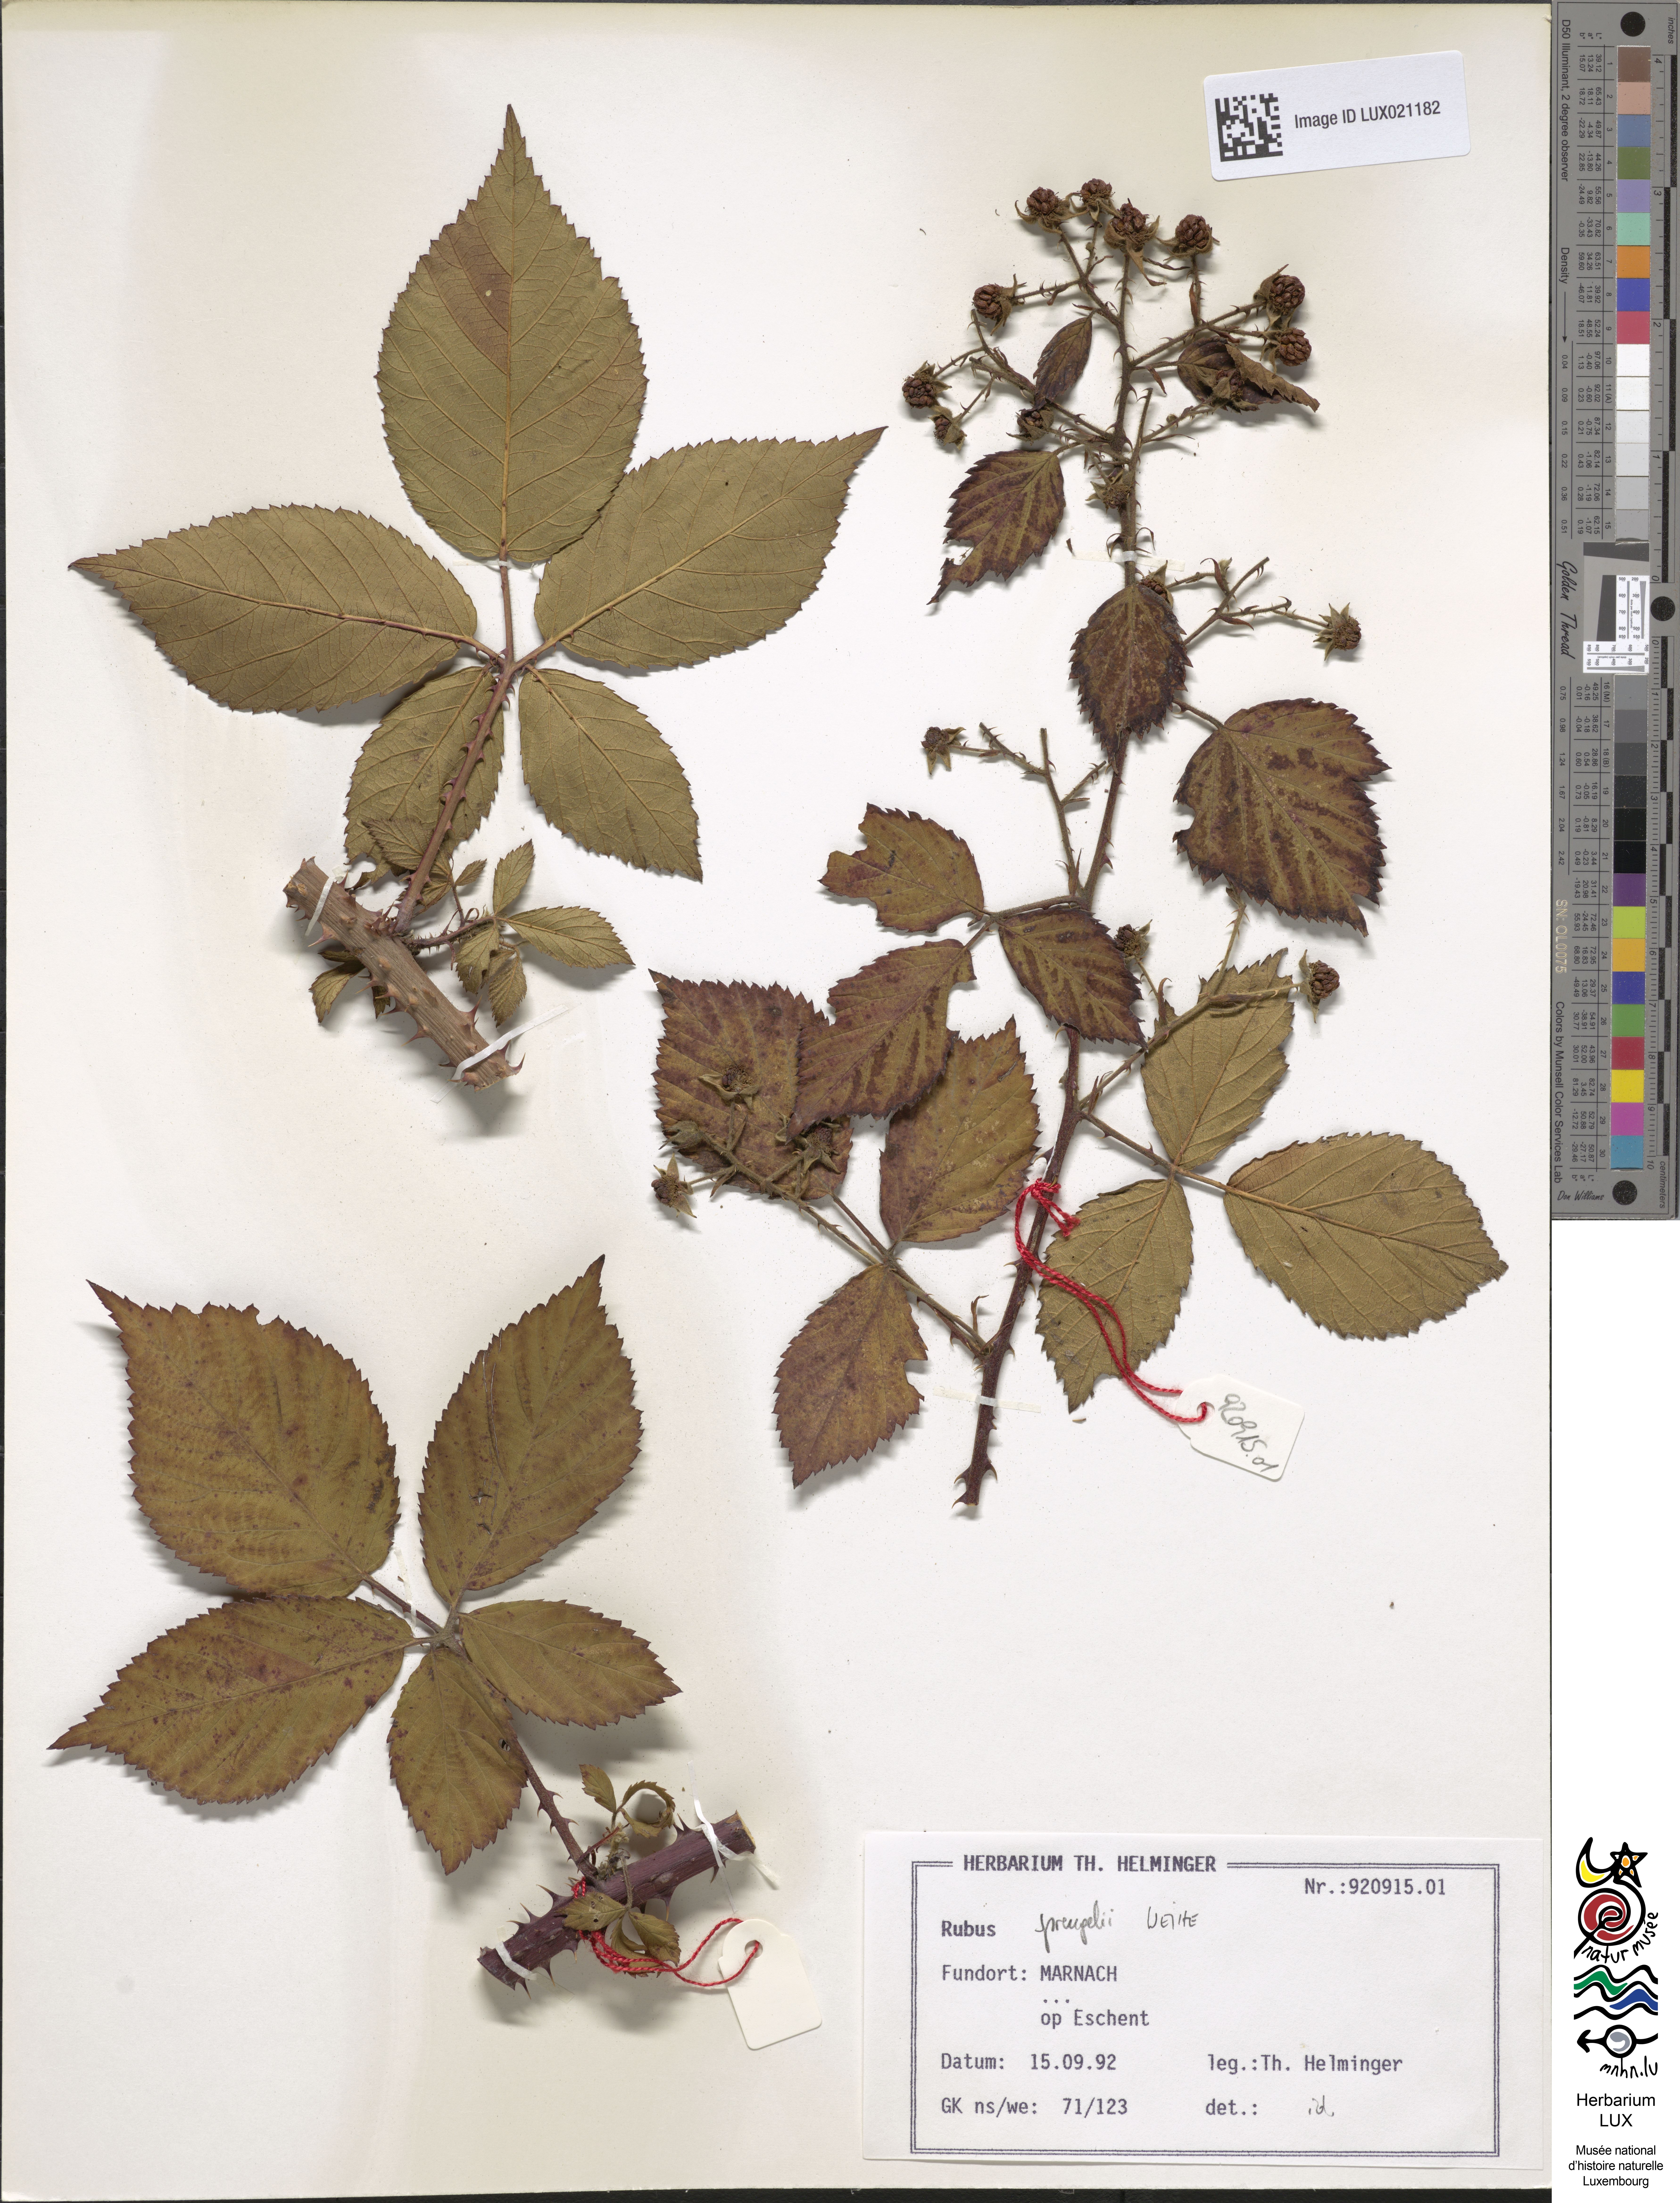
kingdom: Plantae
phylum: Tracheophyta
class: Magnoliopsida
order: Rosales
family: Rosaceae
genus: Rubus
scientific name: Rubus sprengelii
